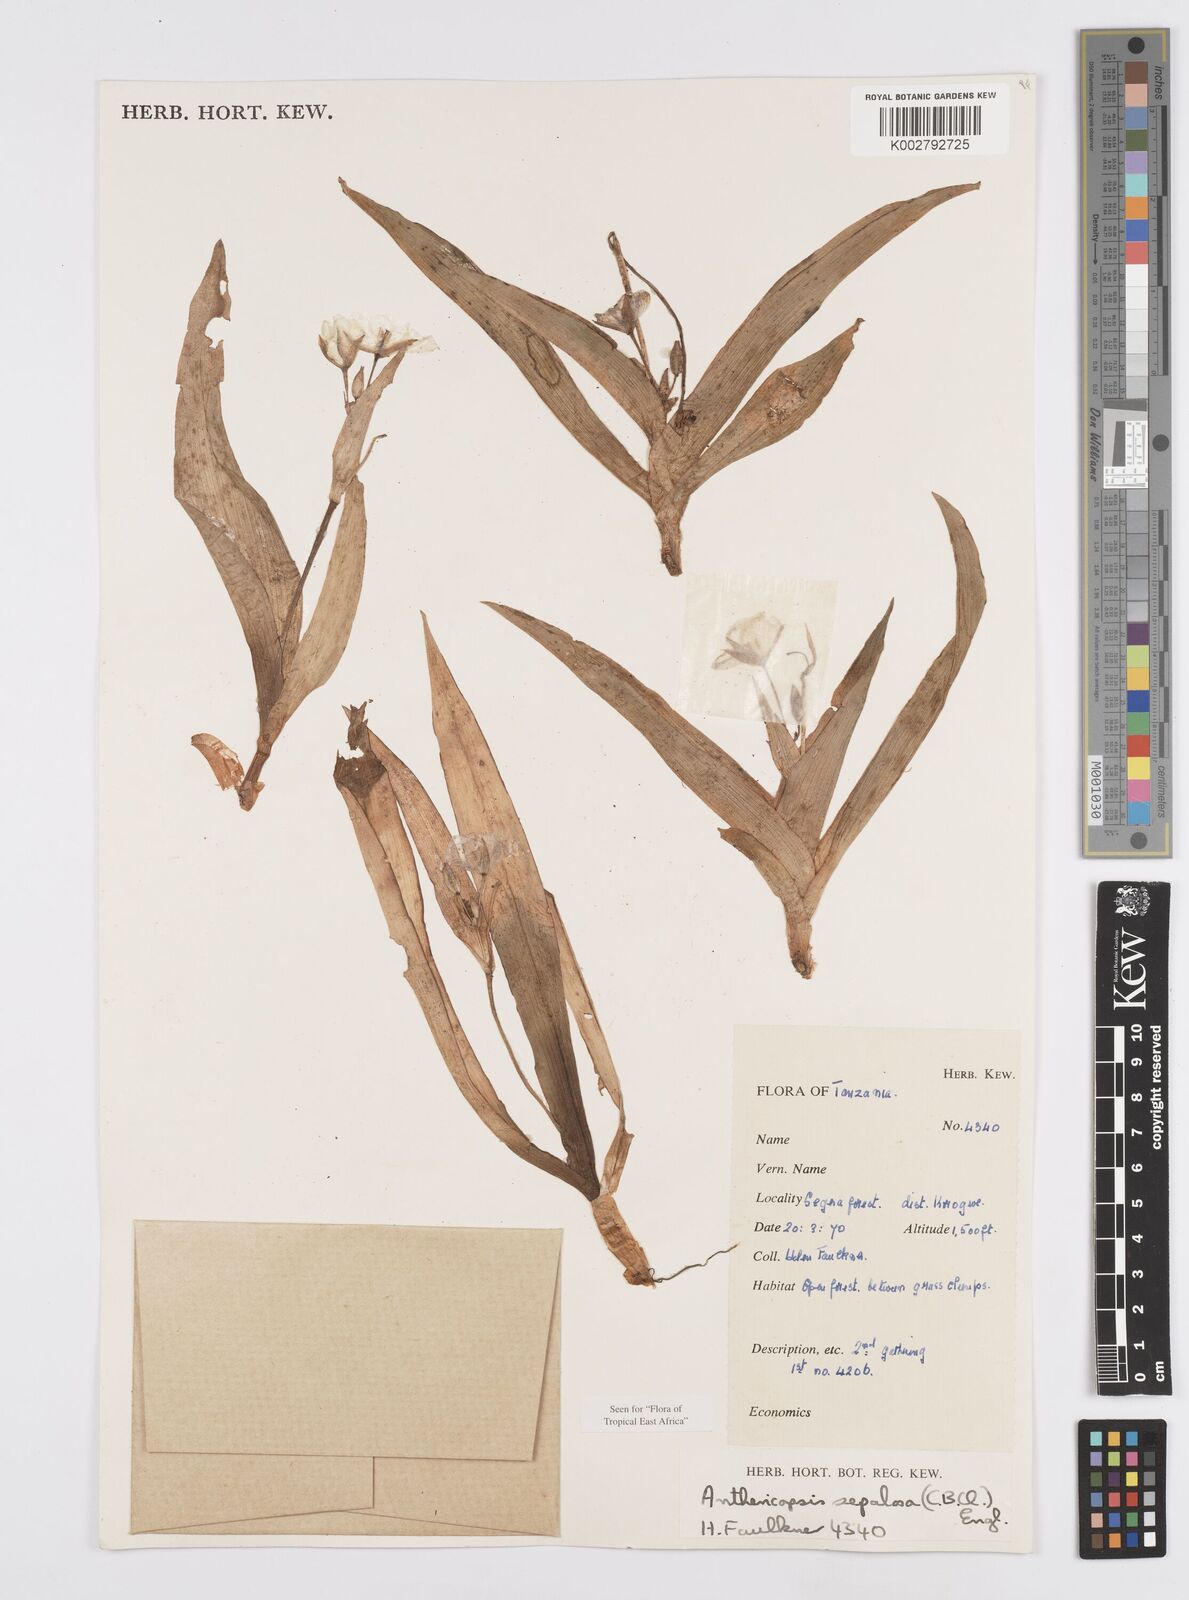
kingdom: Plantae
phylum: Tracheophyta
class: Liliopsida
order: Commelinales
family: Commelinaceae
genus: Anthericopsis
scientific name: Anthericopsis sepalosa
